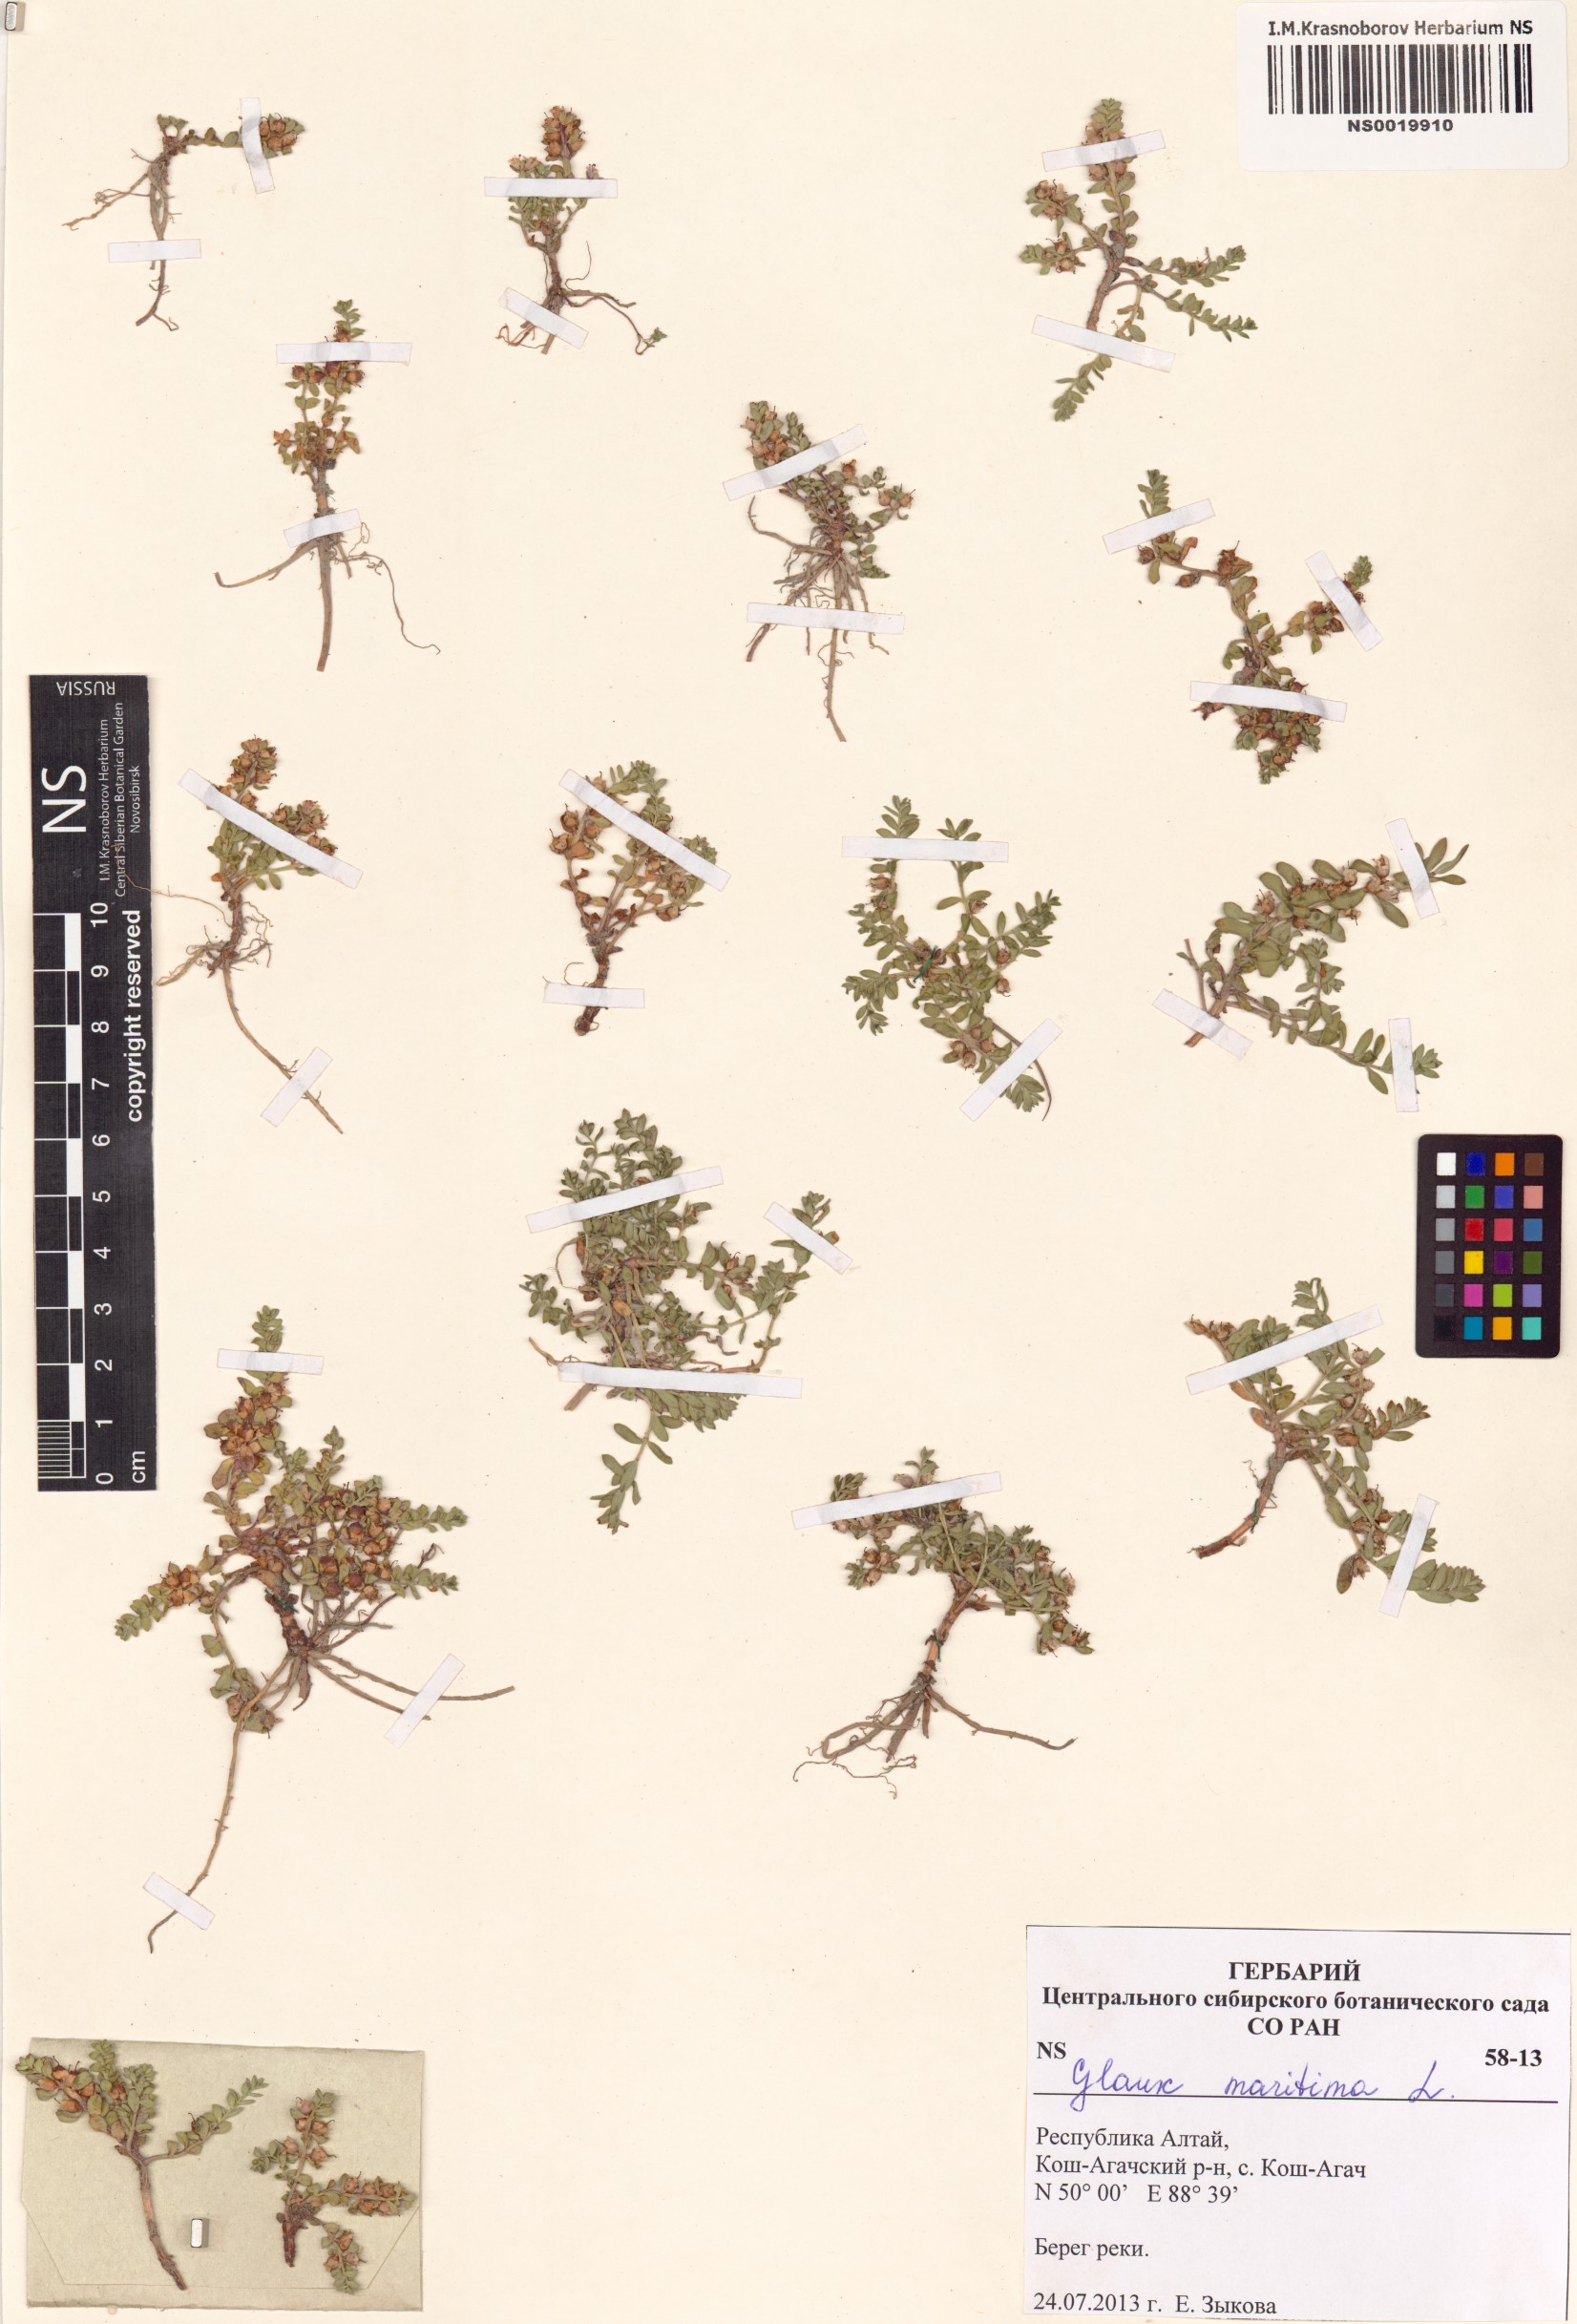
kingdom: Plantae
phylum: Tracheophyta
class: Magnoliopsida
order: Ericales
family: Primulaceae
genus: Lysimachia
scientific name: Lysimachia maritima
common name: Sea milkwort
